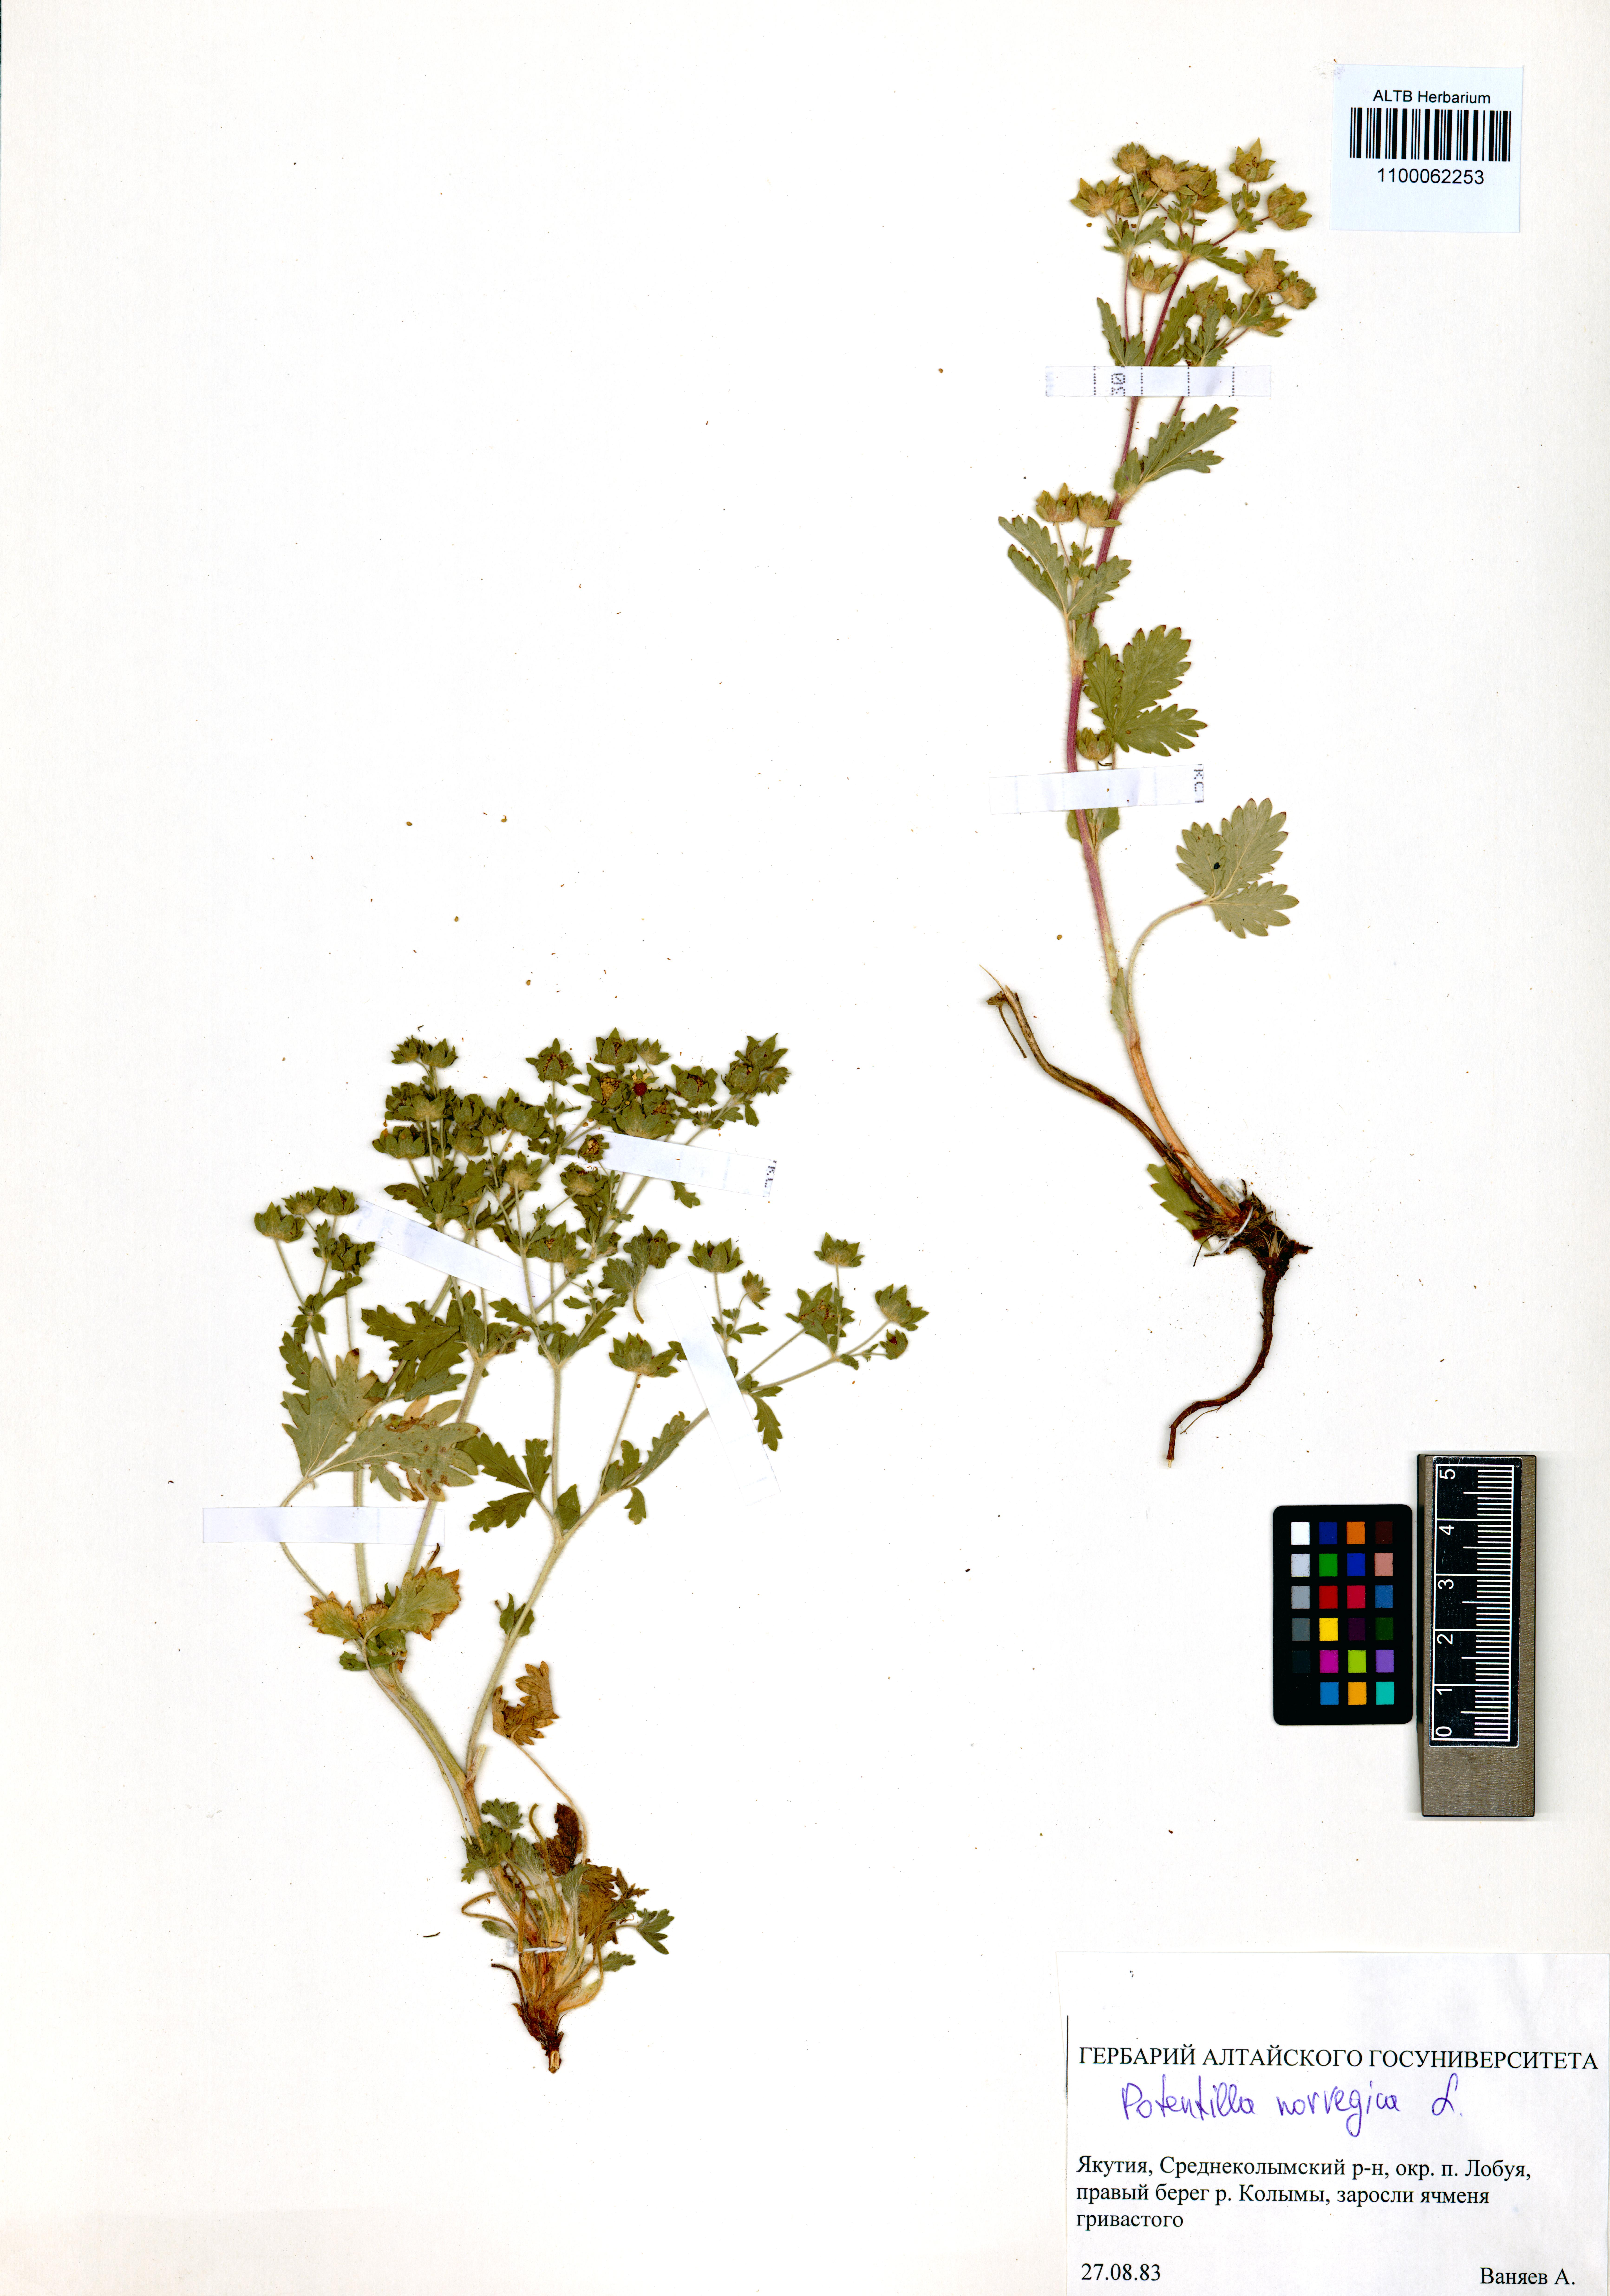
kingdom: Plantae
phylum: Tracheophyta
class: Magnoliopsida
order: Rosales
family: Rosaceae
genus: Potentilla
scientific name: Potentilla norvegica
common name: Ternate-leaved cinquefoil
